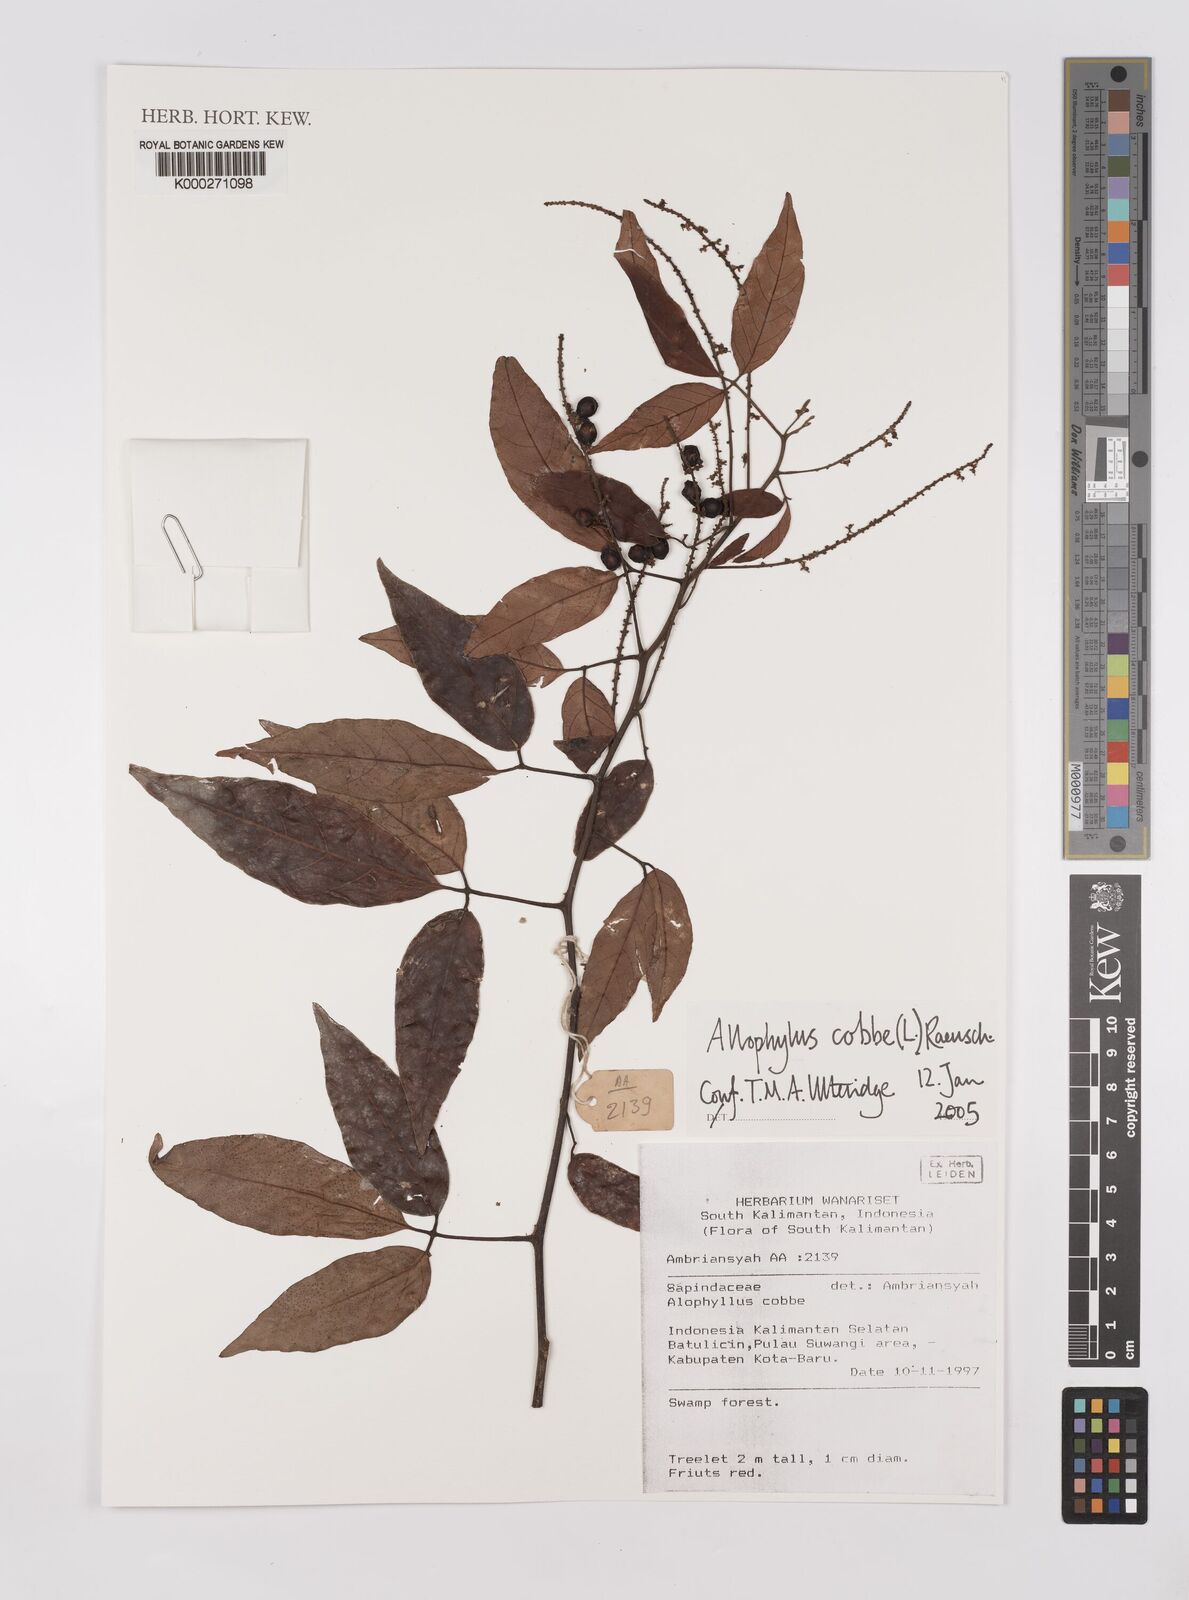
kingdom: Plantae
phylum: Tracheophyta
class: Magnoliopsida
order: Sapindales
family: Sapindaceae
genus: Allophylus
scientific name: Allophylus
